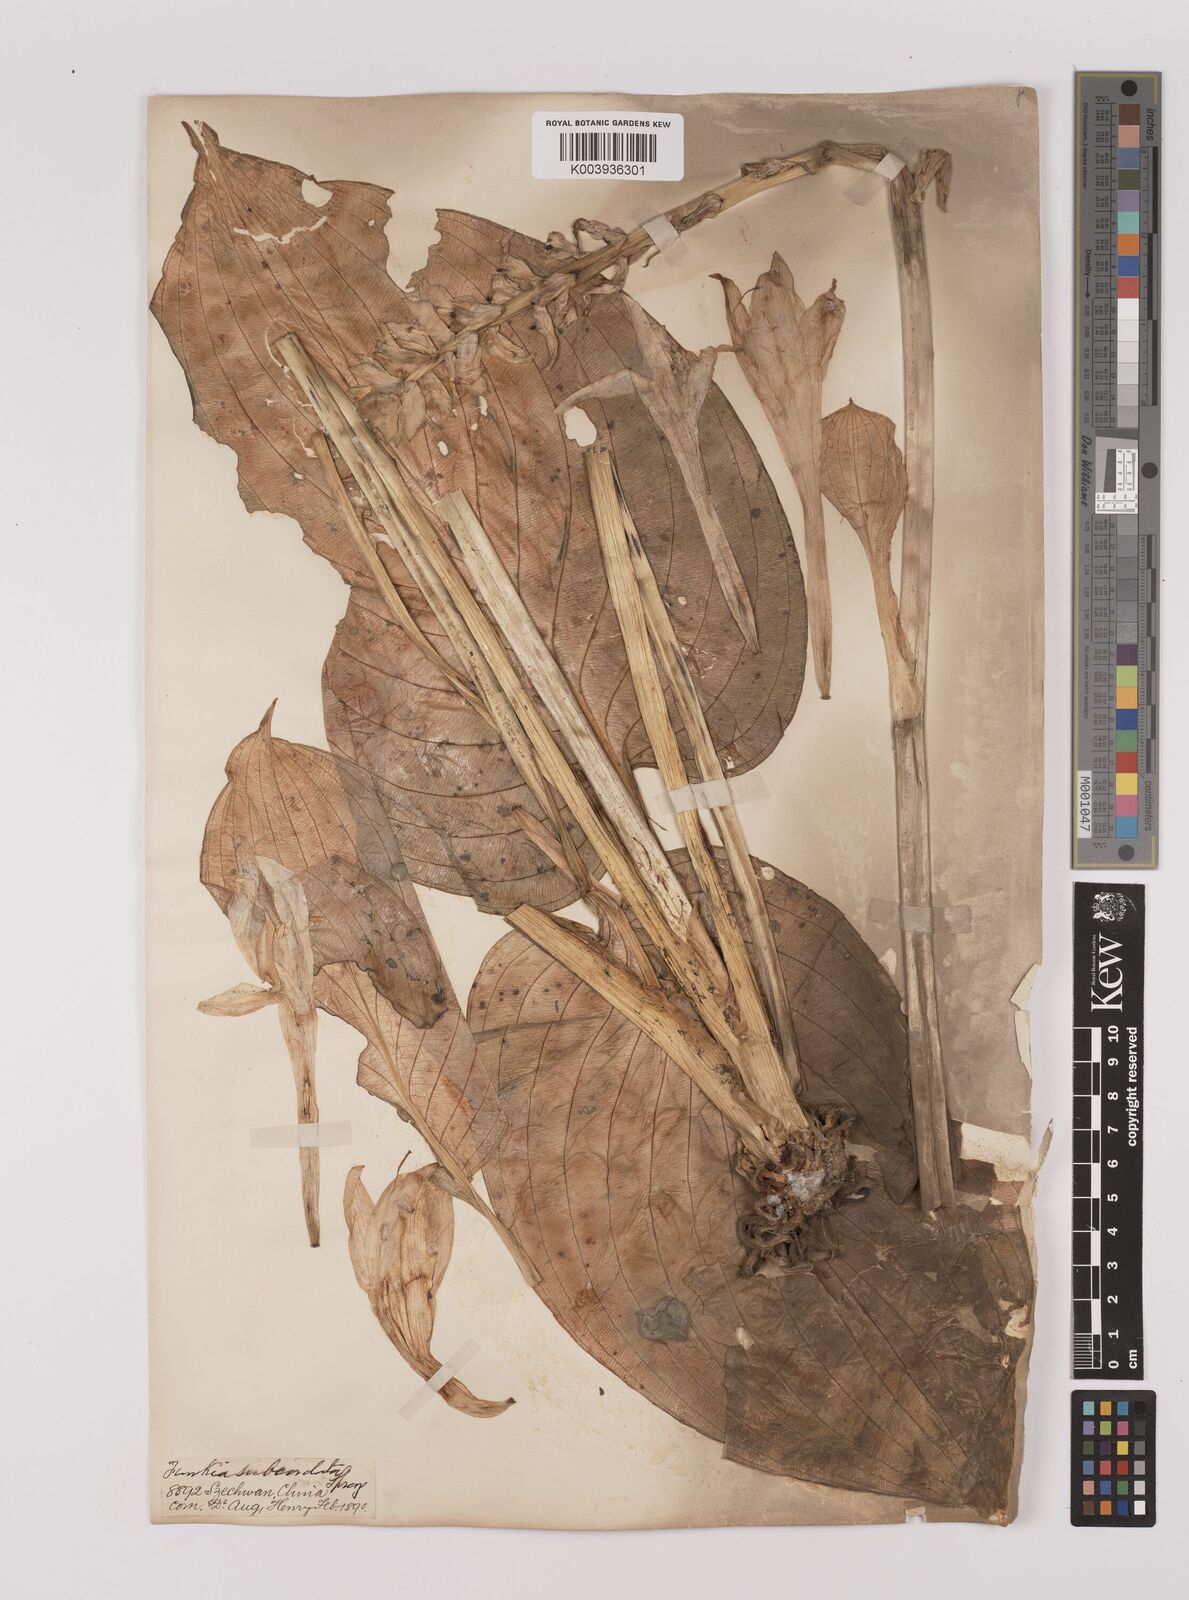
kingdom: Plantae
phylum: Tracheophyta
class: Liliopsida
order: Asparagales
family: Asparagaceae
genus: Hosta
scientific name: Hosta plantaginea
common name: August-lily
